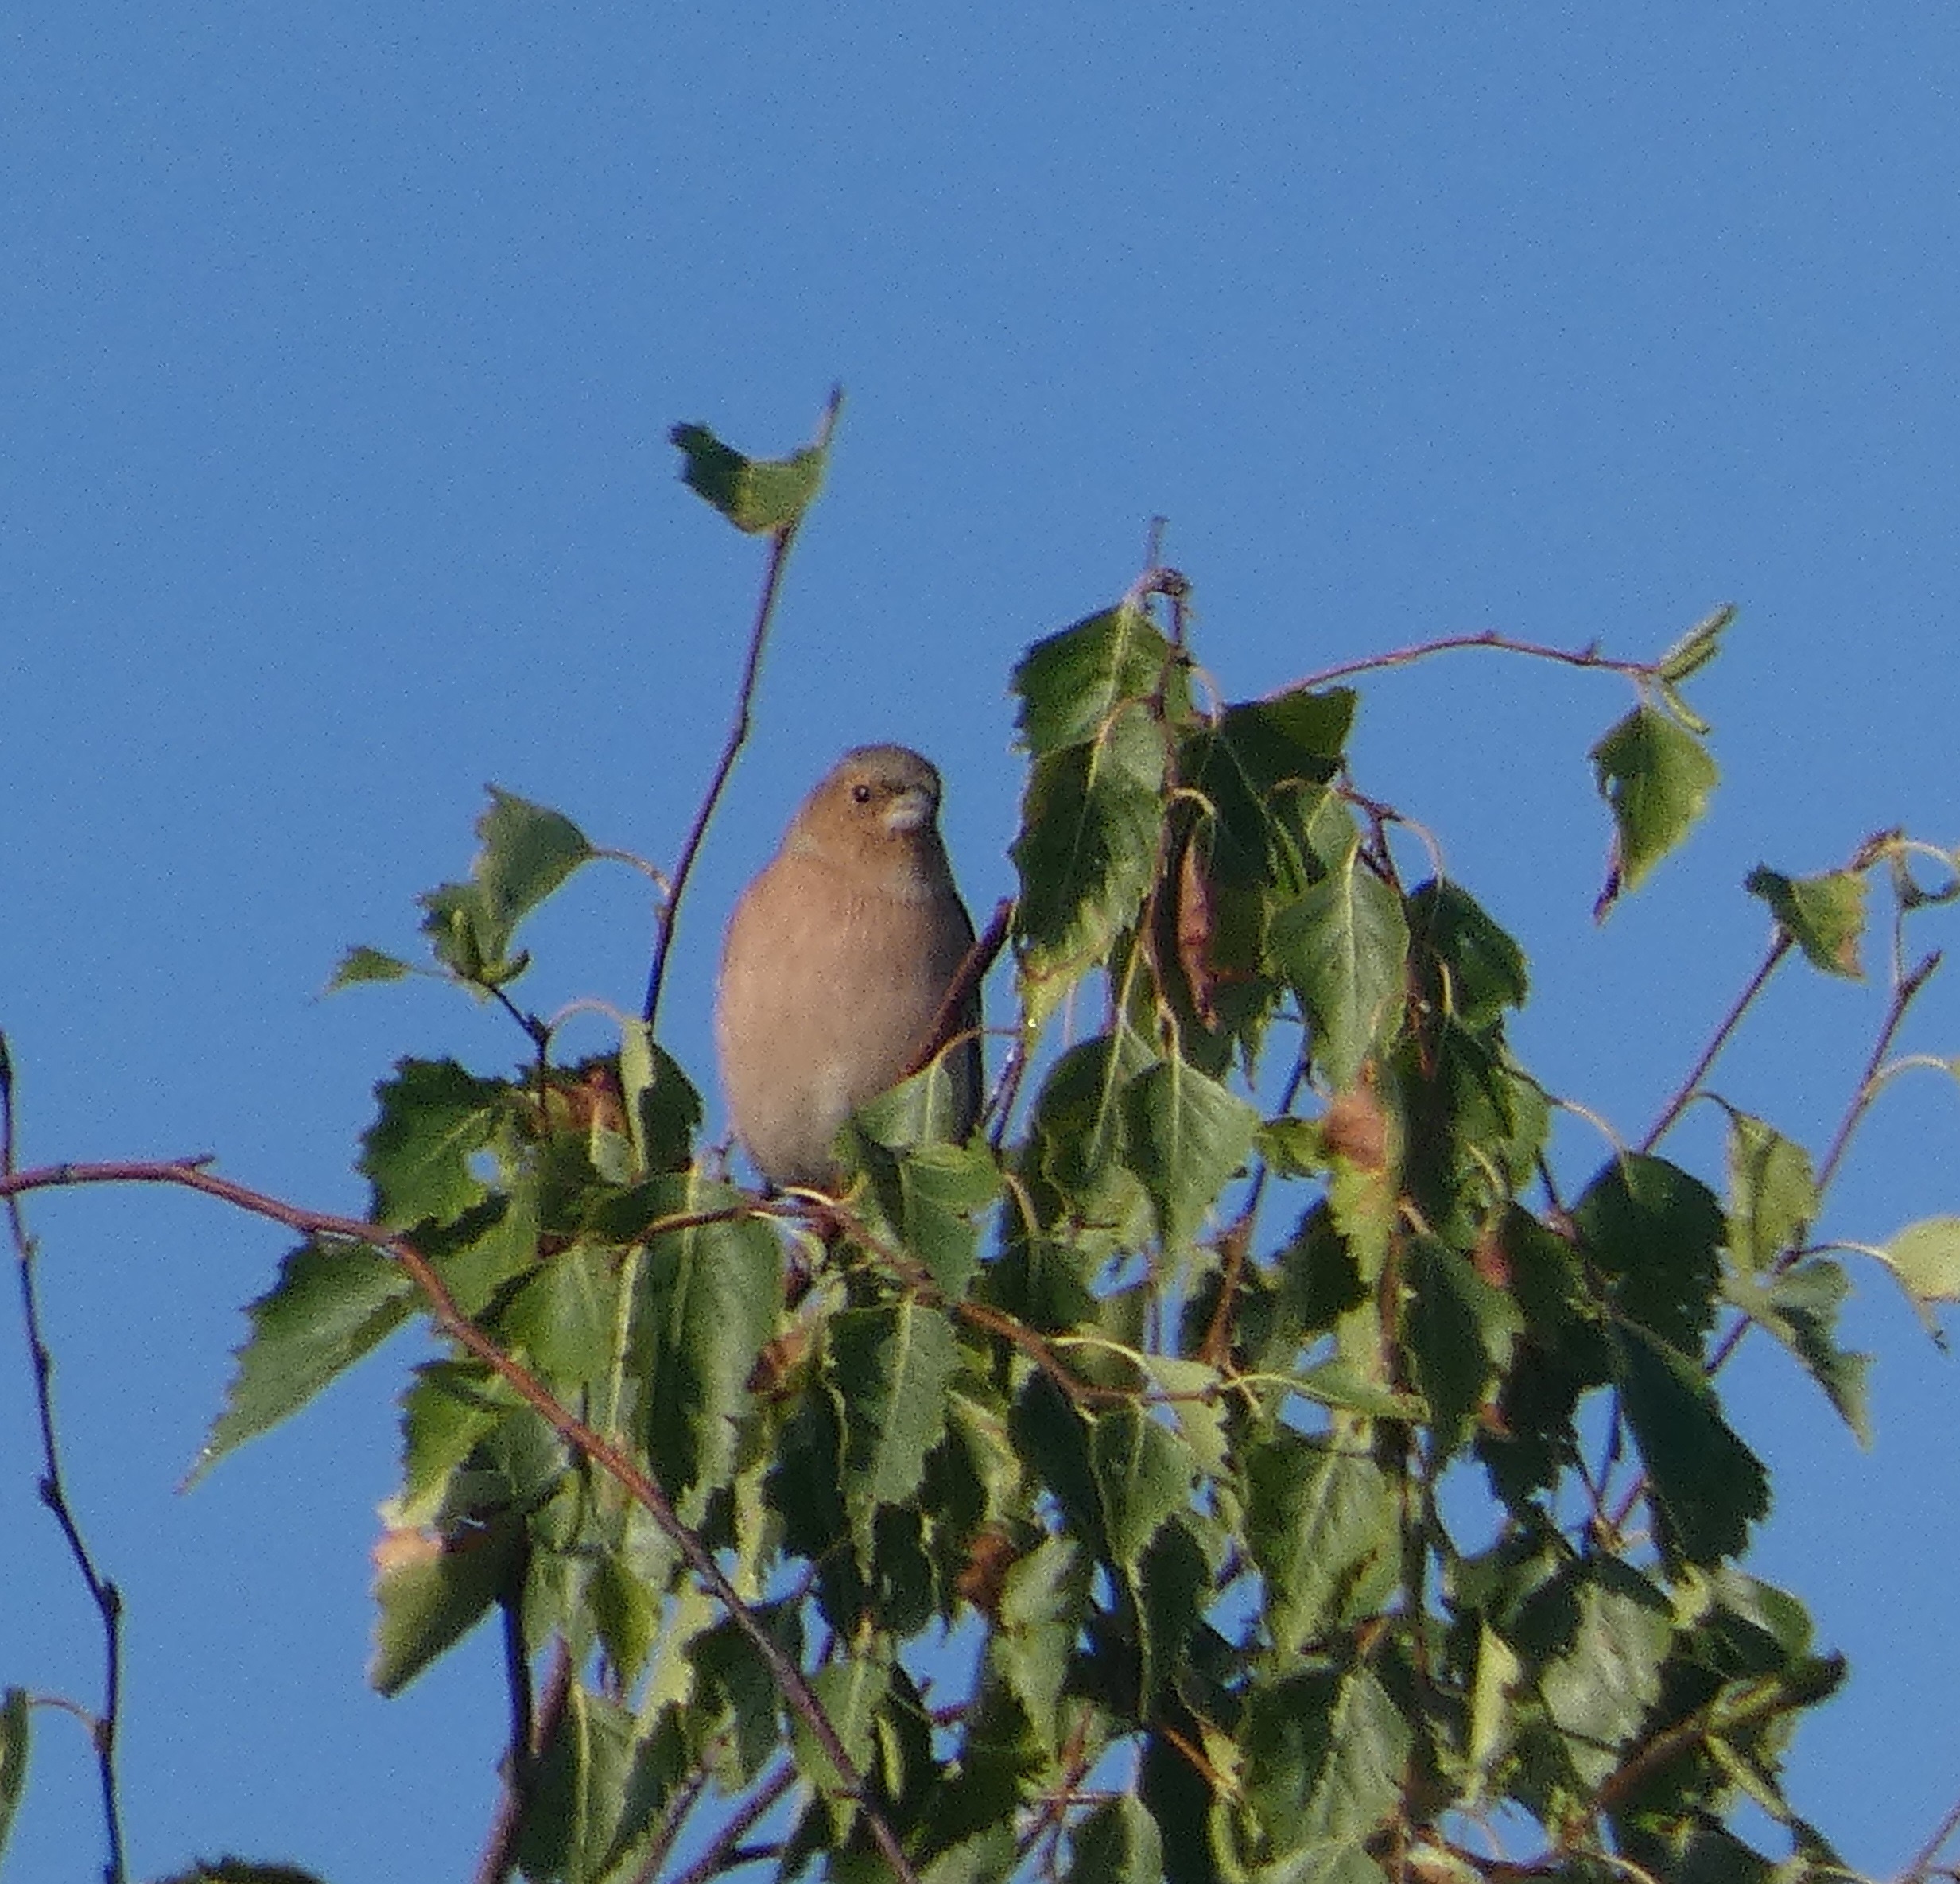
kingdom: Animalia
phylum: Chordata
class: Aves
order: Passeriformes
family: Fringillidae
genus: Fringilla
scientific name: Fringilla coelebs
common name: Bogfinke
